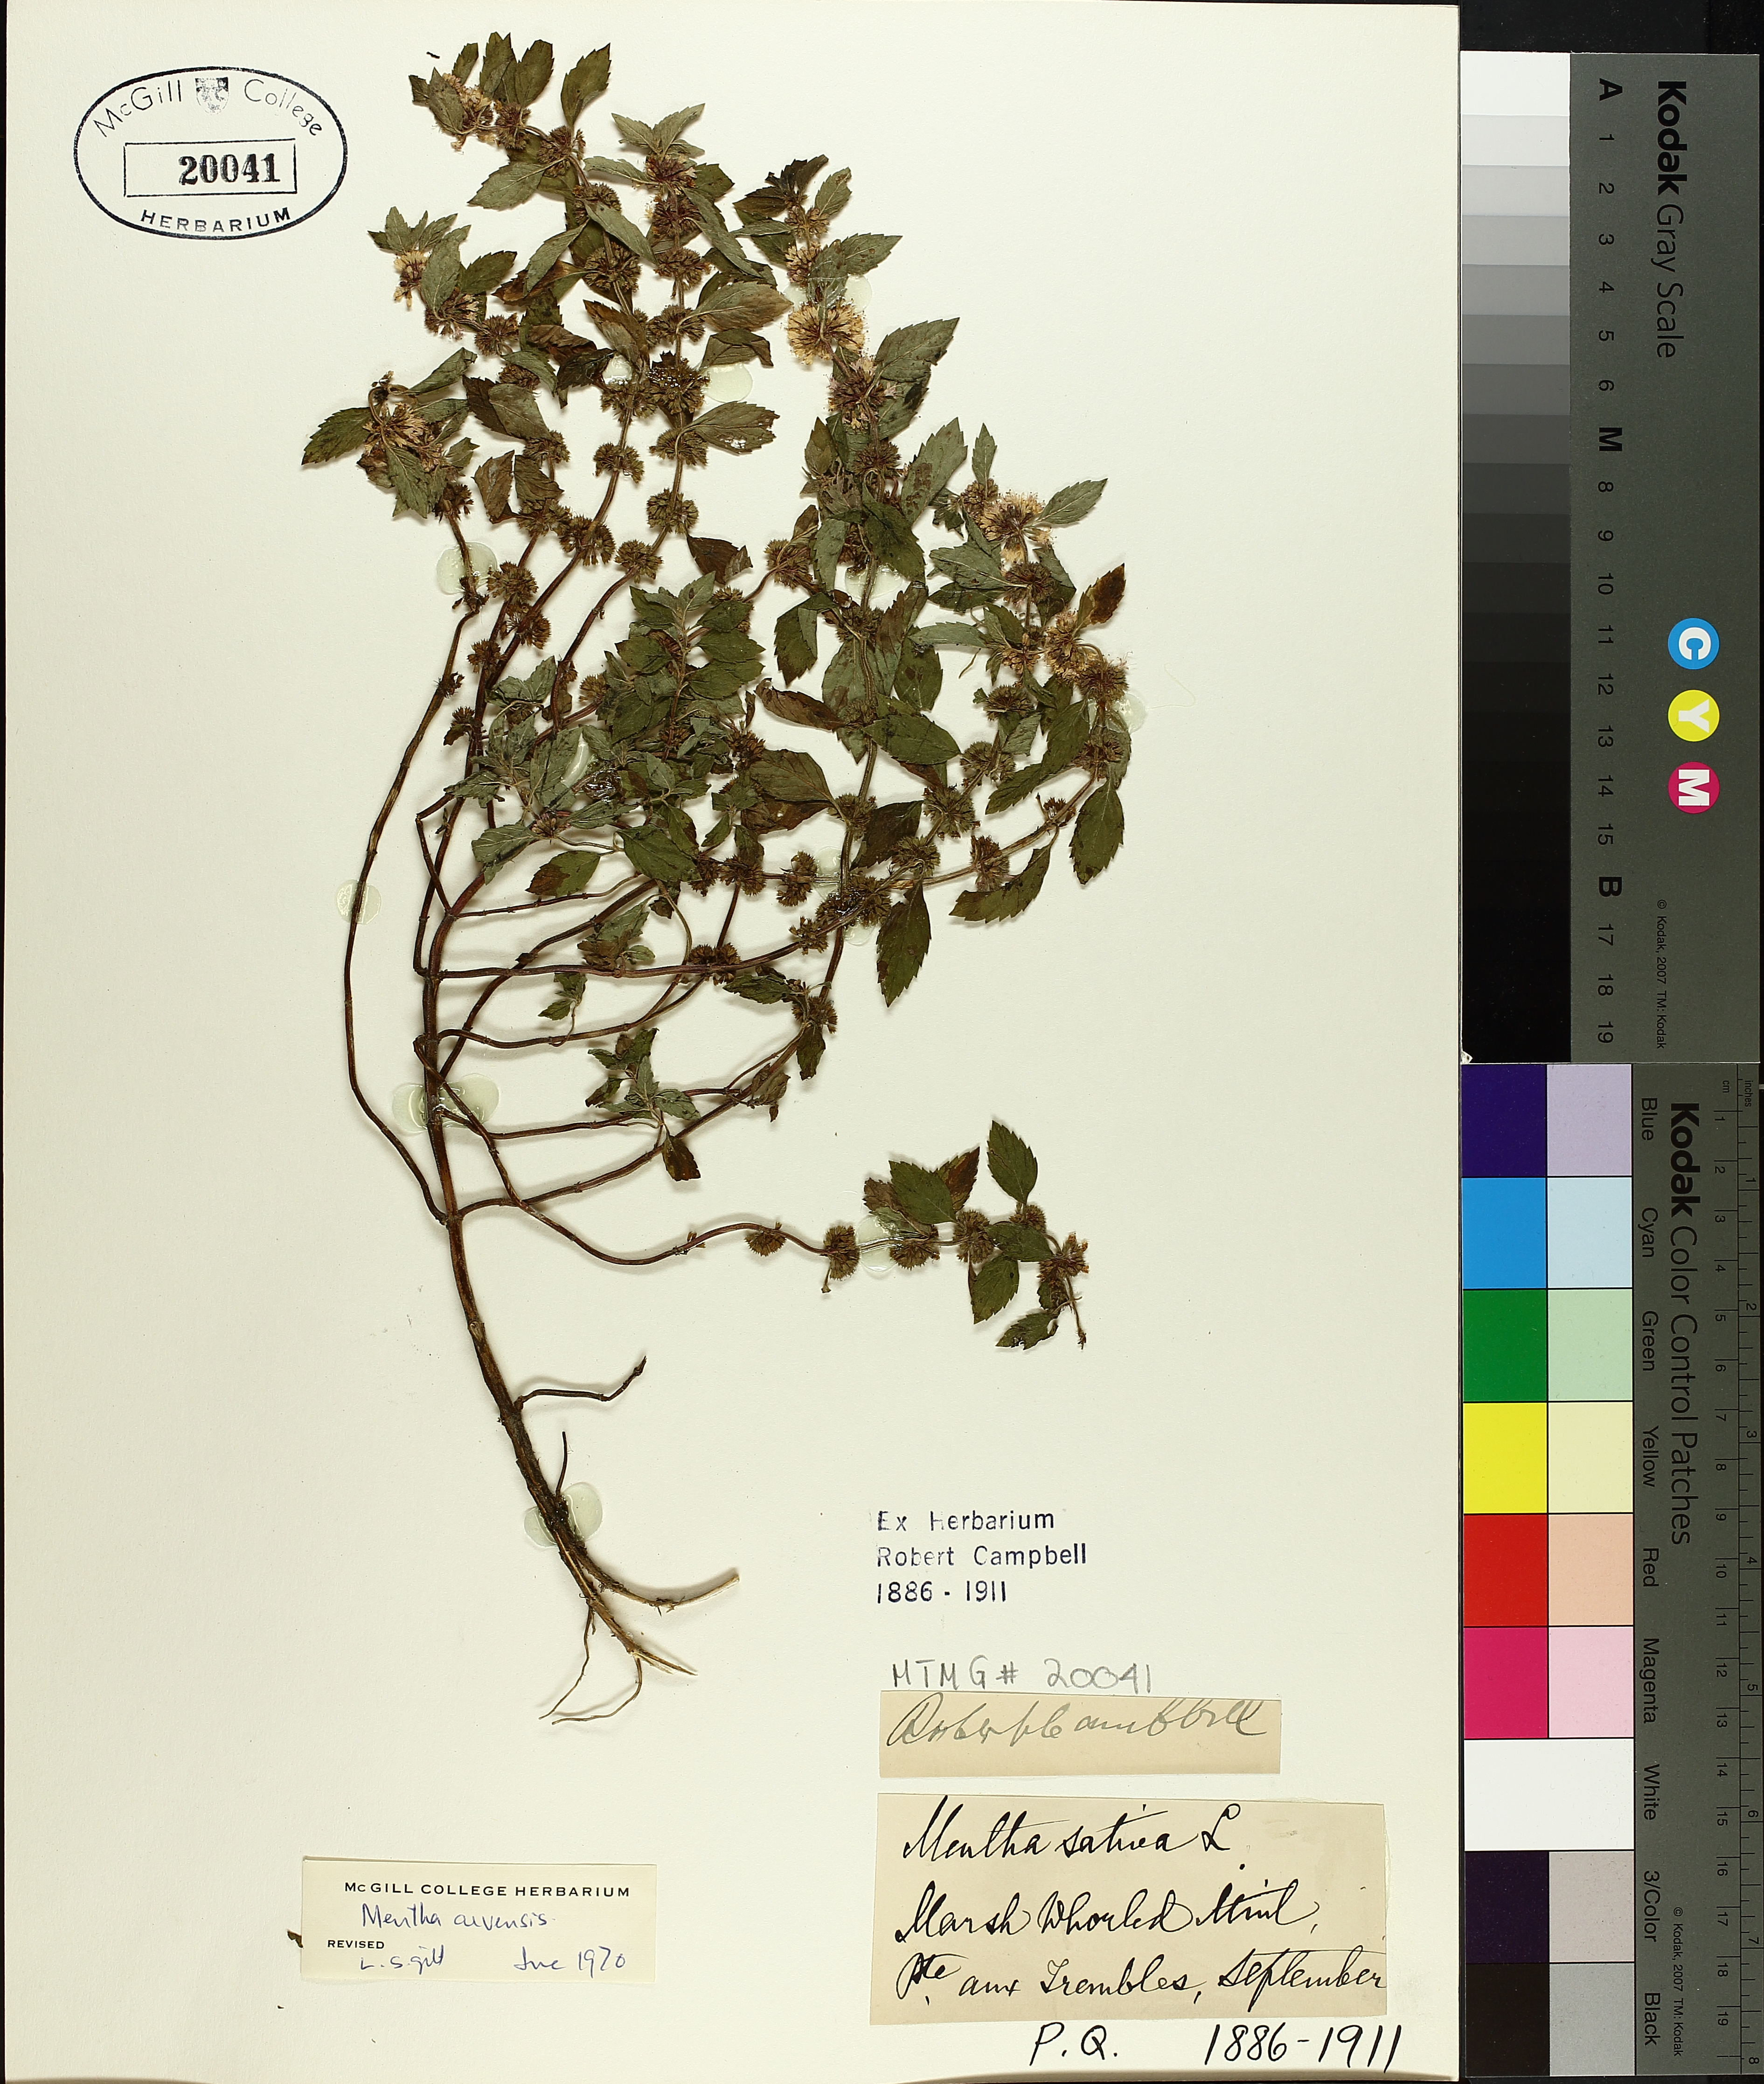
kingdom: Plantae
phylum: Tracheophyta
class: Magnoliopsida
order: Lamiales
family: Lamiaceae
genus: Mentha
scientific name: Mentha arvensis
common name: Corn mint
